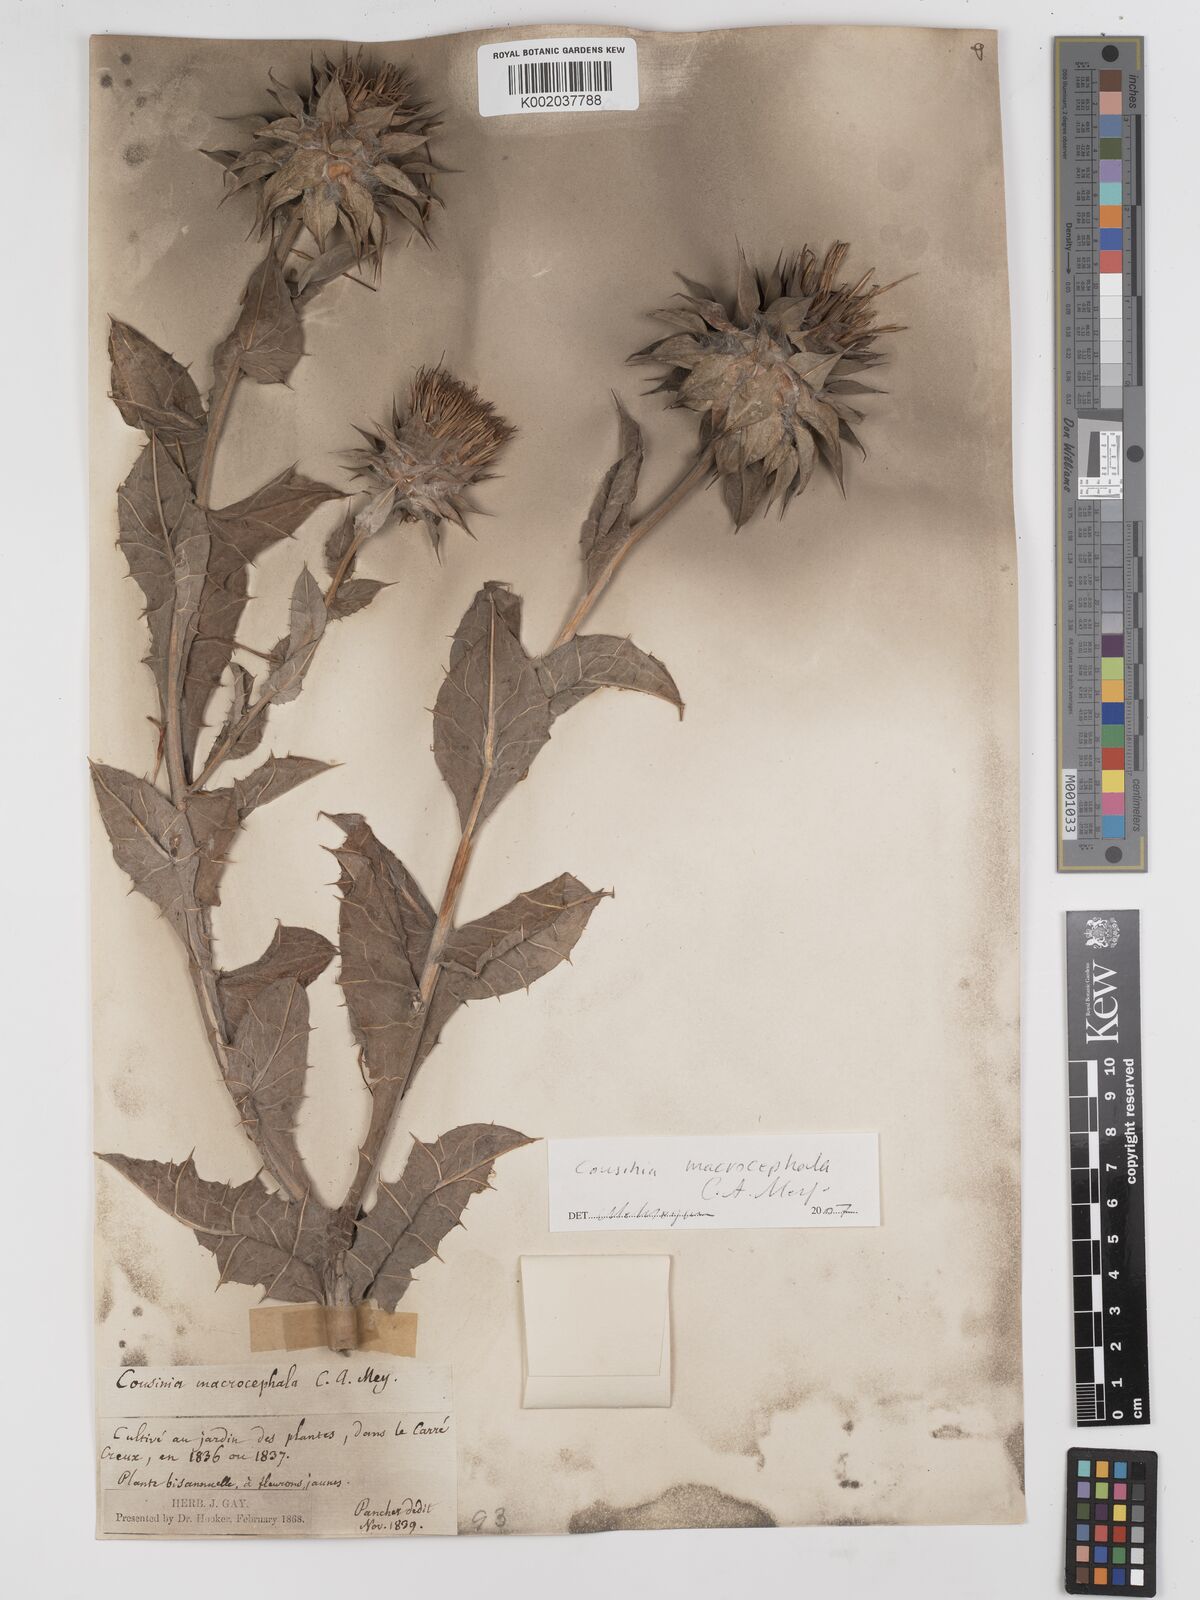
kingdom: Plantae
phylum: Tracheophyta
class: Magnoliopsida
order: Asterales
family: Asteraceae
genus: Cousinia
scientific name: Cousinia macrocephala
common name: Macrocephalous cousinia
